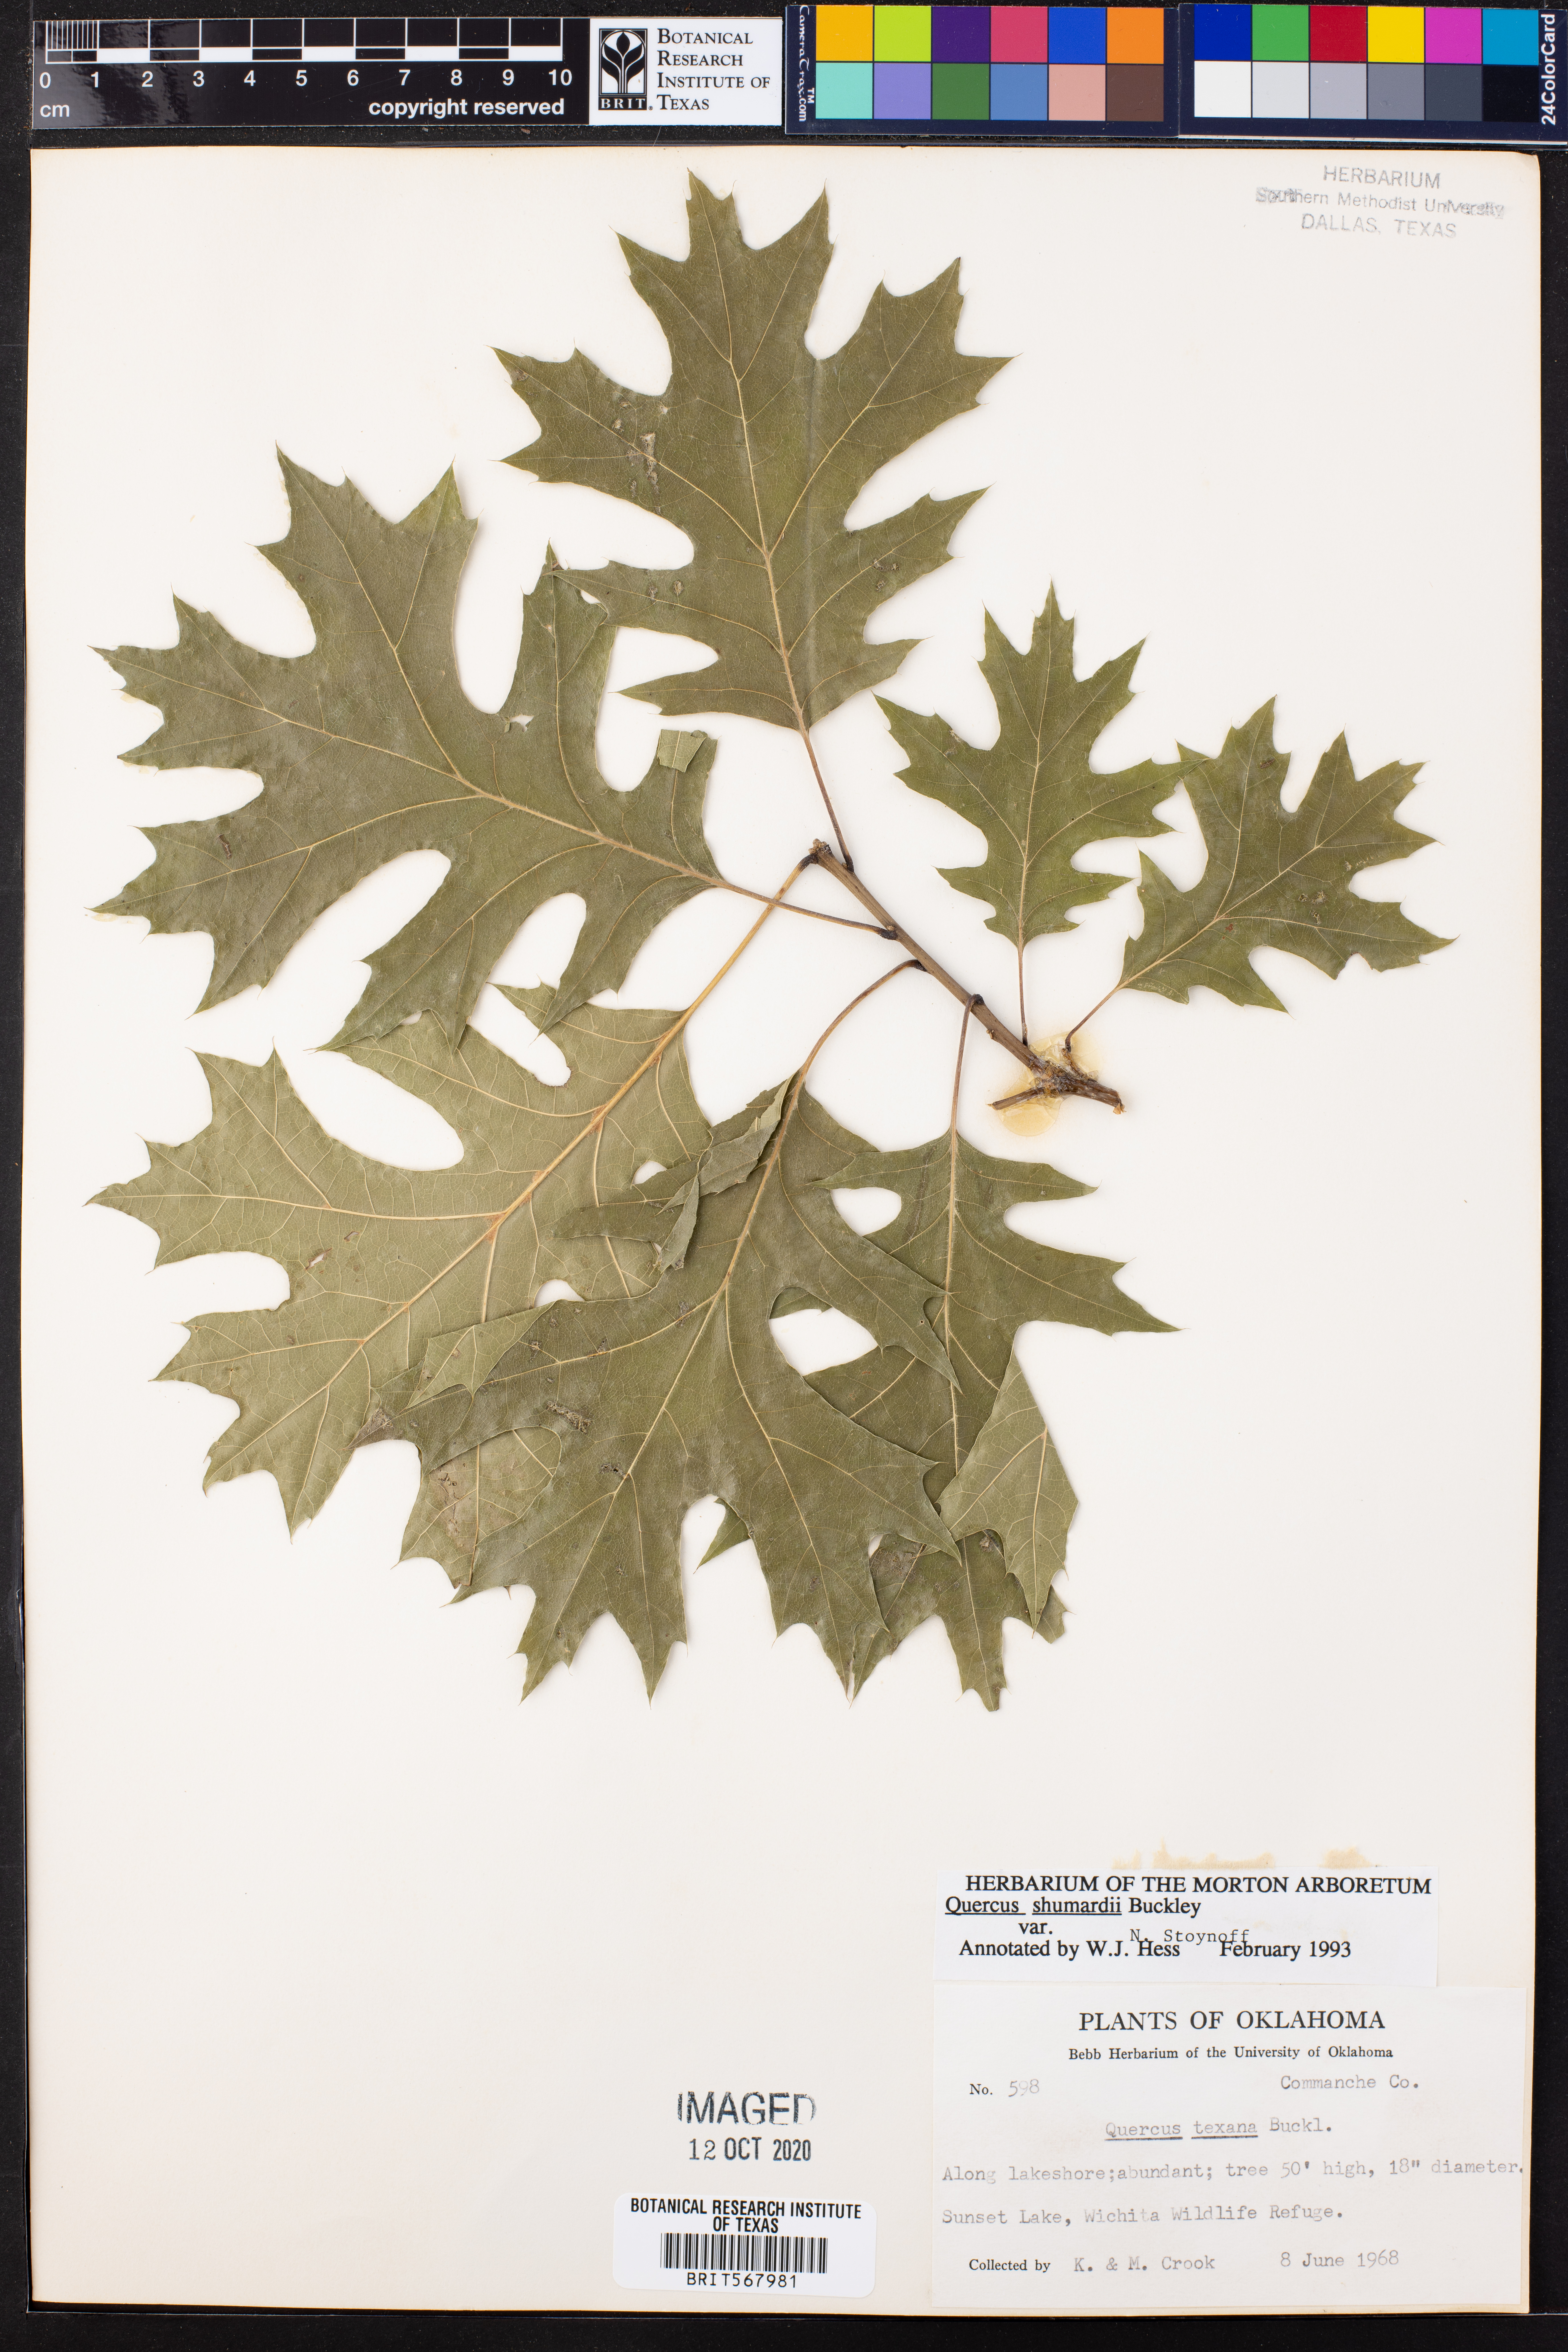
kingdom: Plantae
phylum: Tracheophyta
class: Magnoliopsida
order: Fagales
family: Fagaceae
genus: Quercus
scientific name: Quercus shumardii
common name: Shumard oak
